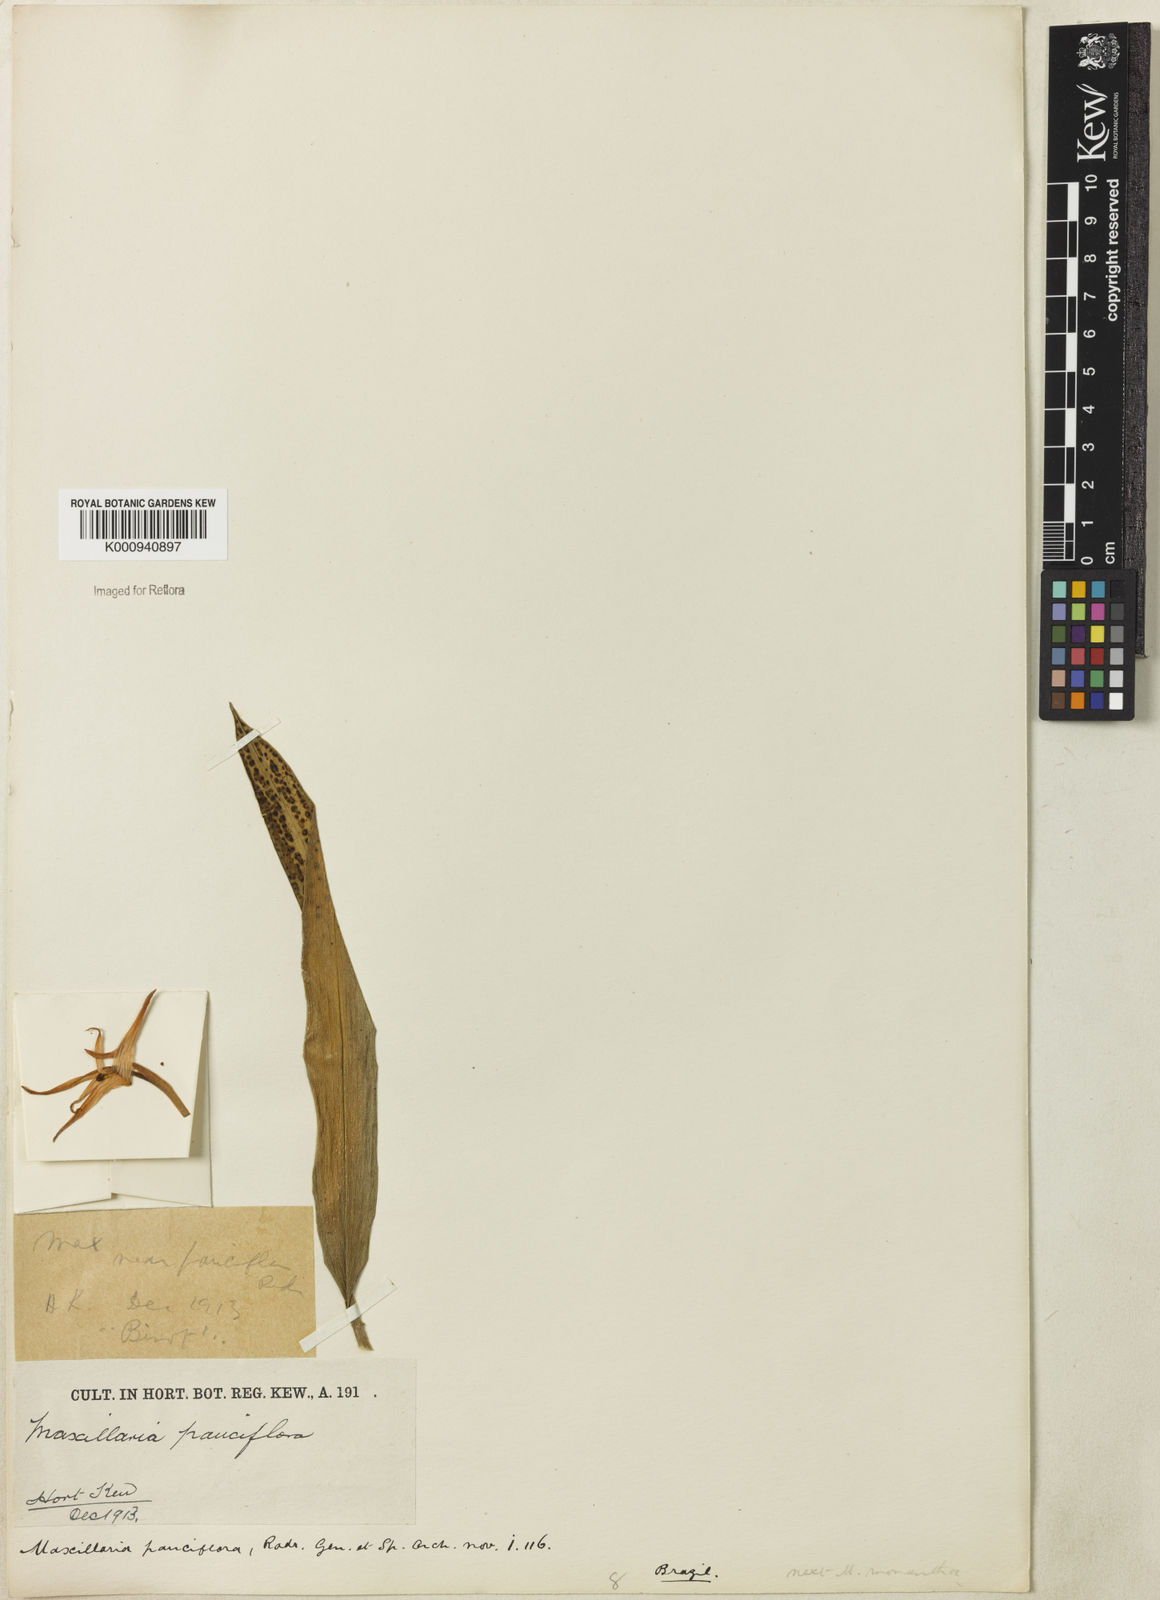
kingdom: Plantae
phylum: Tracheophyta
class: Liliopsida
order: Asparagales
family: Orchidaceae
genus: Maxillaria
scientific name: Maxillaria pauciflora
